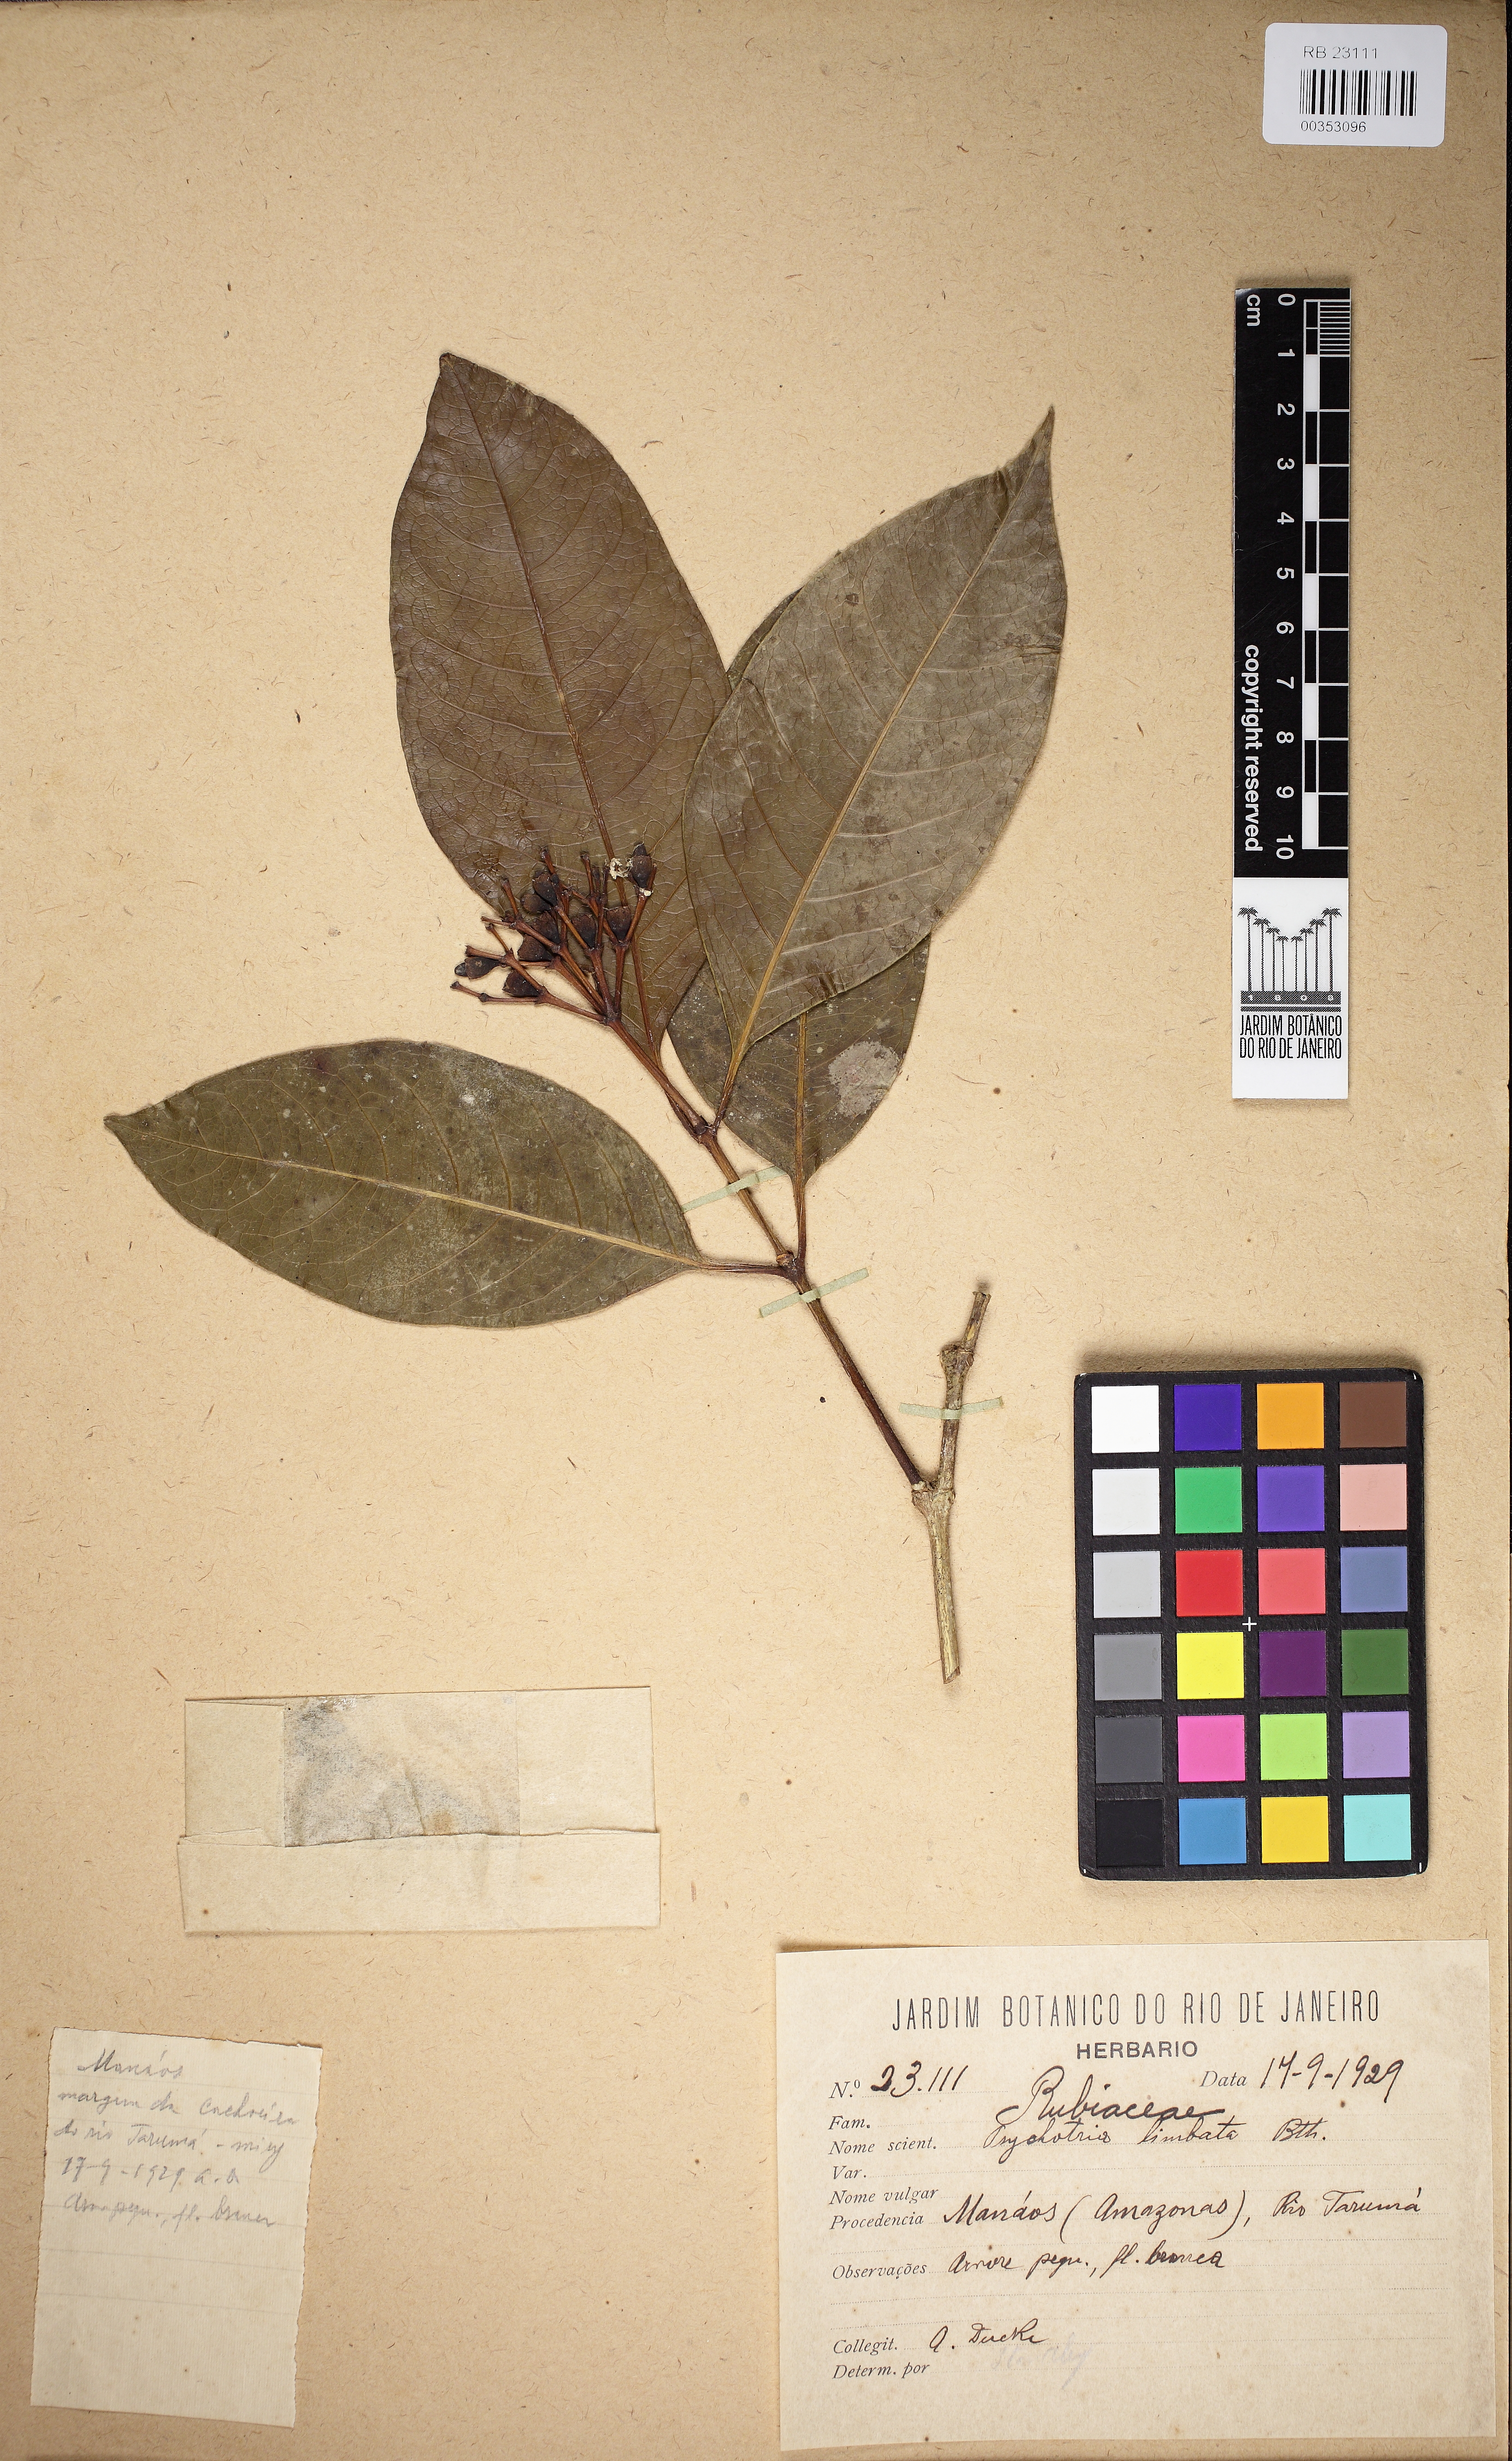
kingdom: Plantae
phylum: Tracheophyta
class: Magnoliopsida
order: Gentianales
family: Rubiaceae
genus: Rudgea
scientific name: Rudgea sclerocalyx
